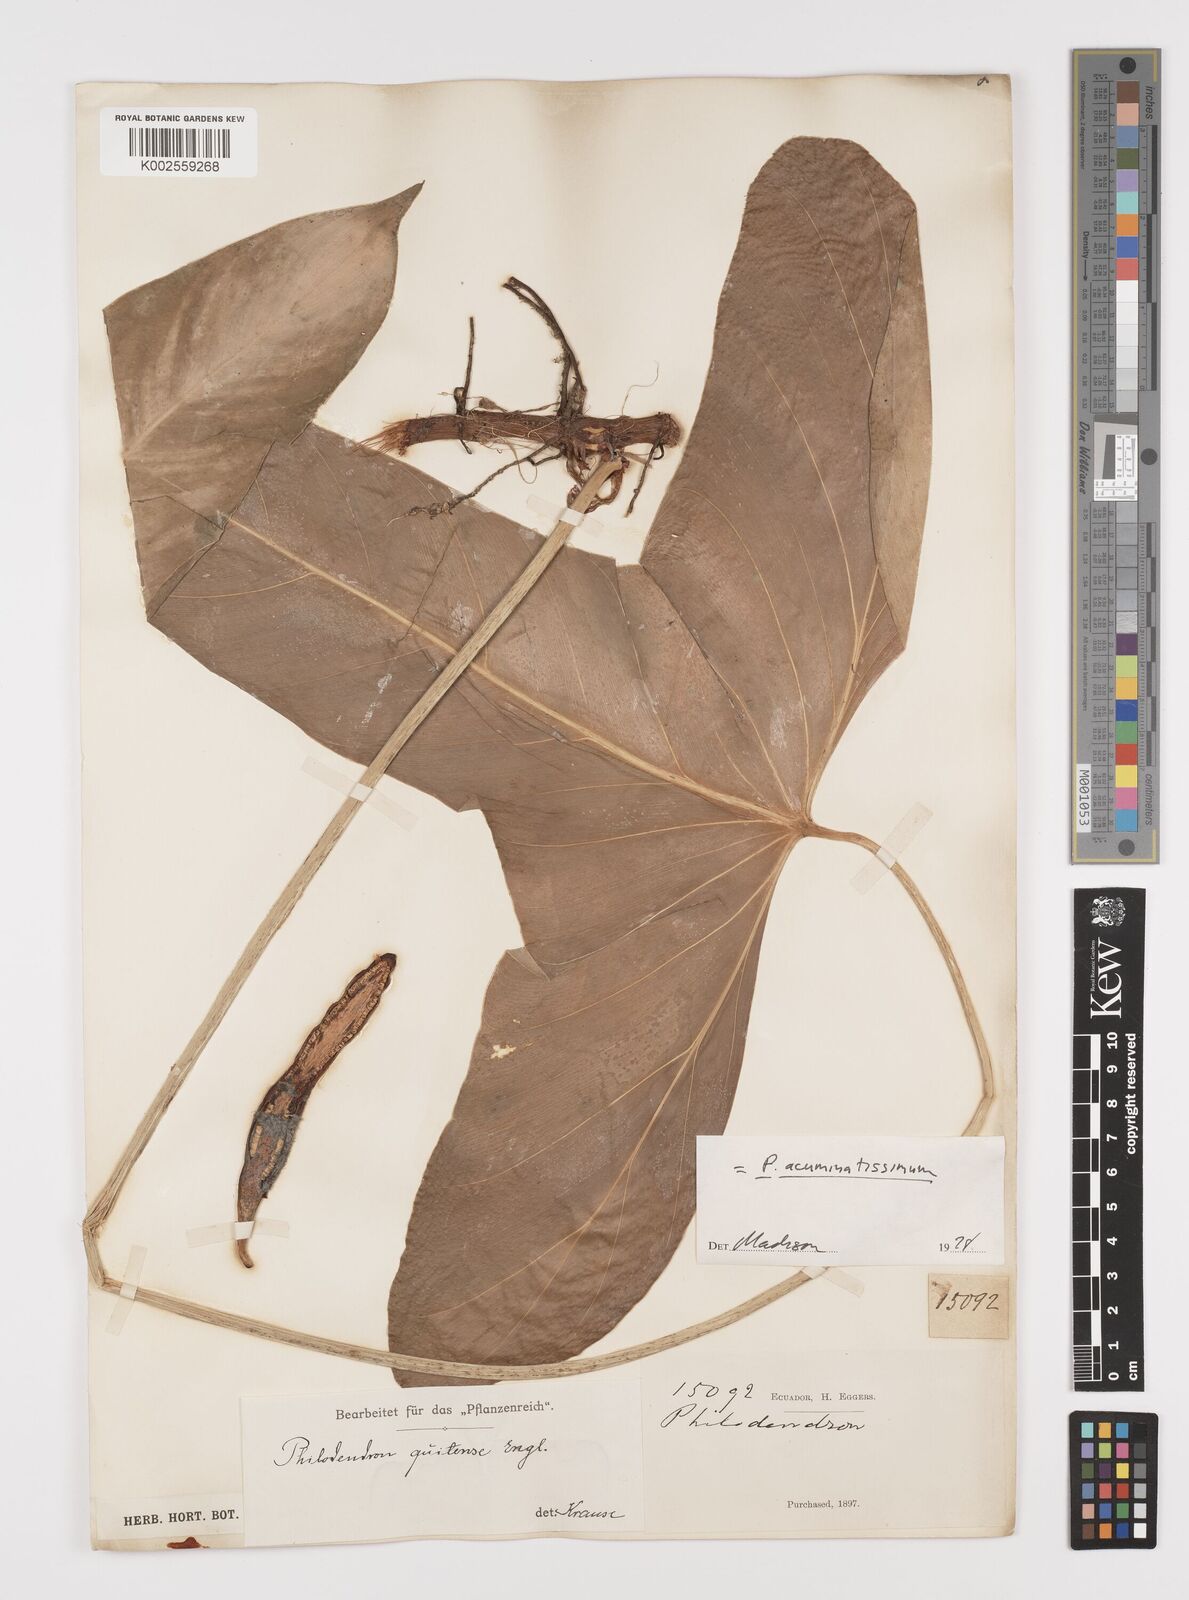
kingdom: Plantae
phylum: Tracheophyta
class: Liliopsida
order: Alismatales
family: Araceae
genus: Philodendron
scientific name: Philodendron quitense
